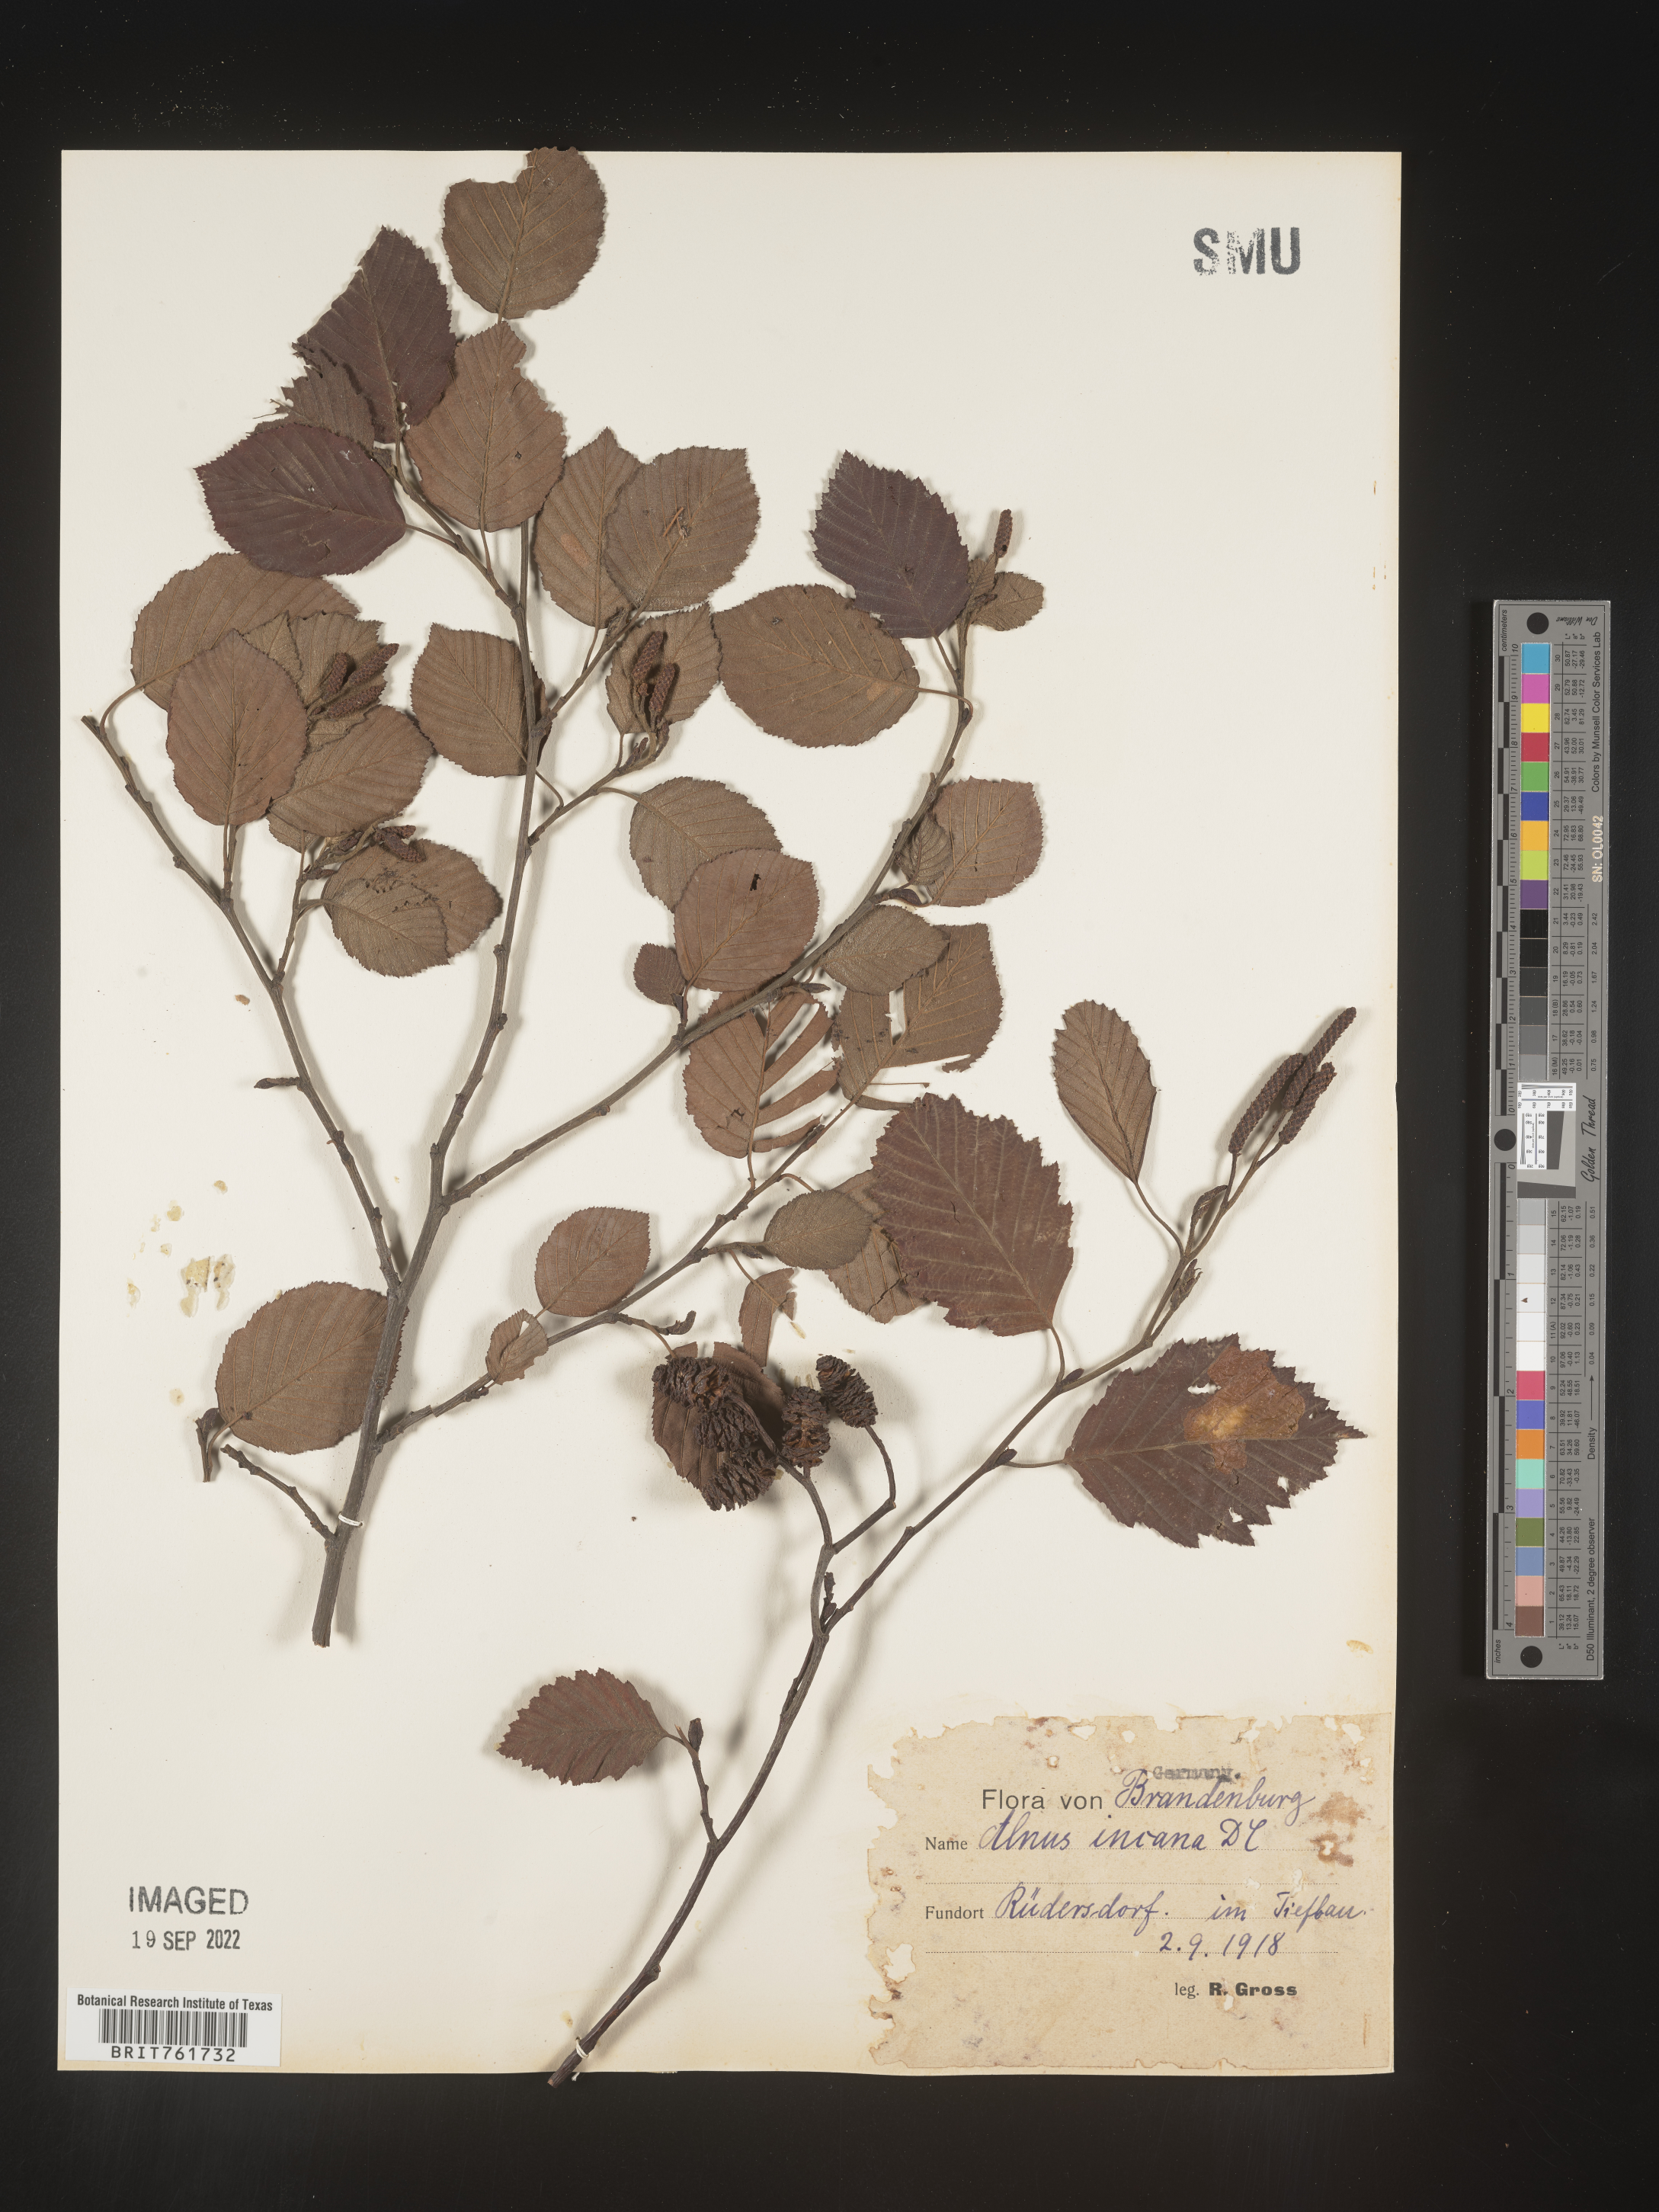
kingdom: Plantae
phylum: Tracheophyta
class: Magnoliopsida
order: Fagales
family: Betulaceae
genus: Alnus
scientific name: Alnus
